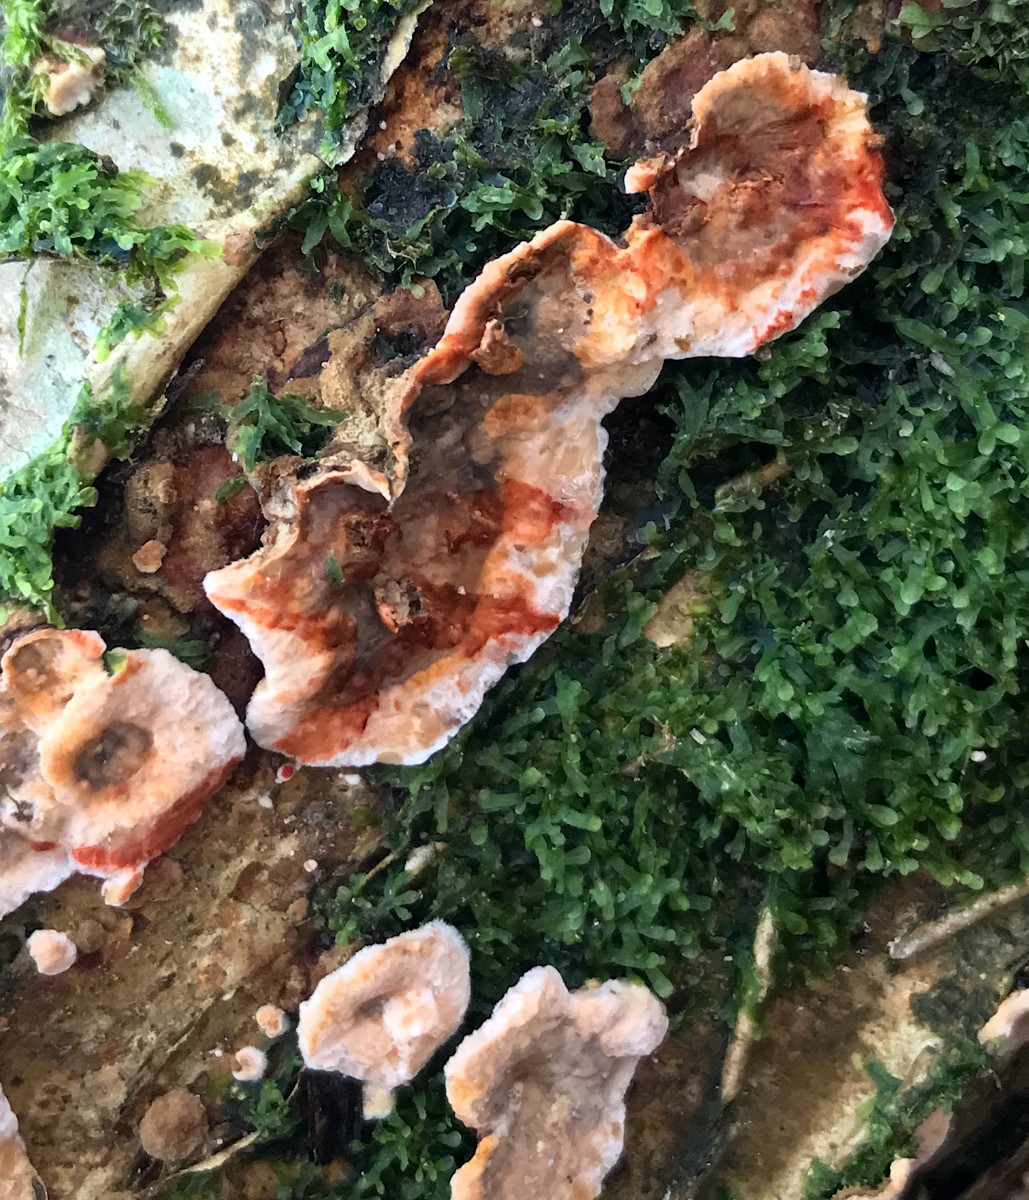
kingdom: Fungi
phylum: Basidiomycota
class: Agaricomycetes
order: Russulales
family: Stereaceae
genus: Stereum
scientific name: Stereum rugosum
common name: rynket lædersvamp
